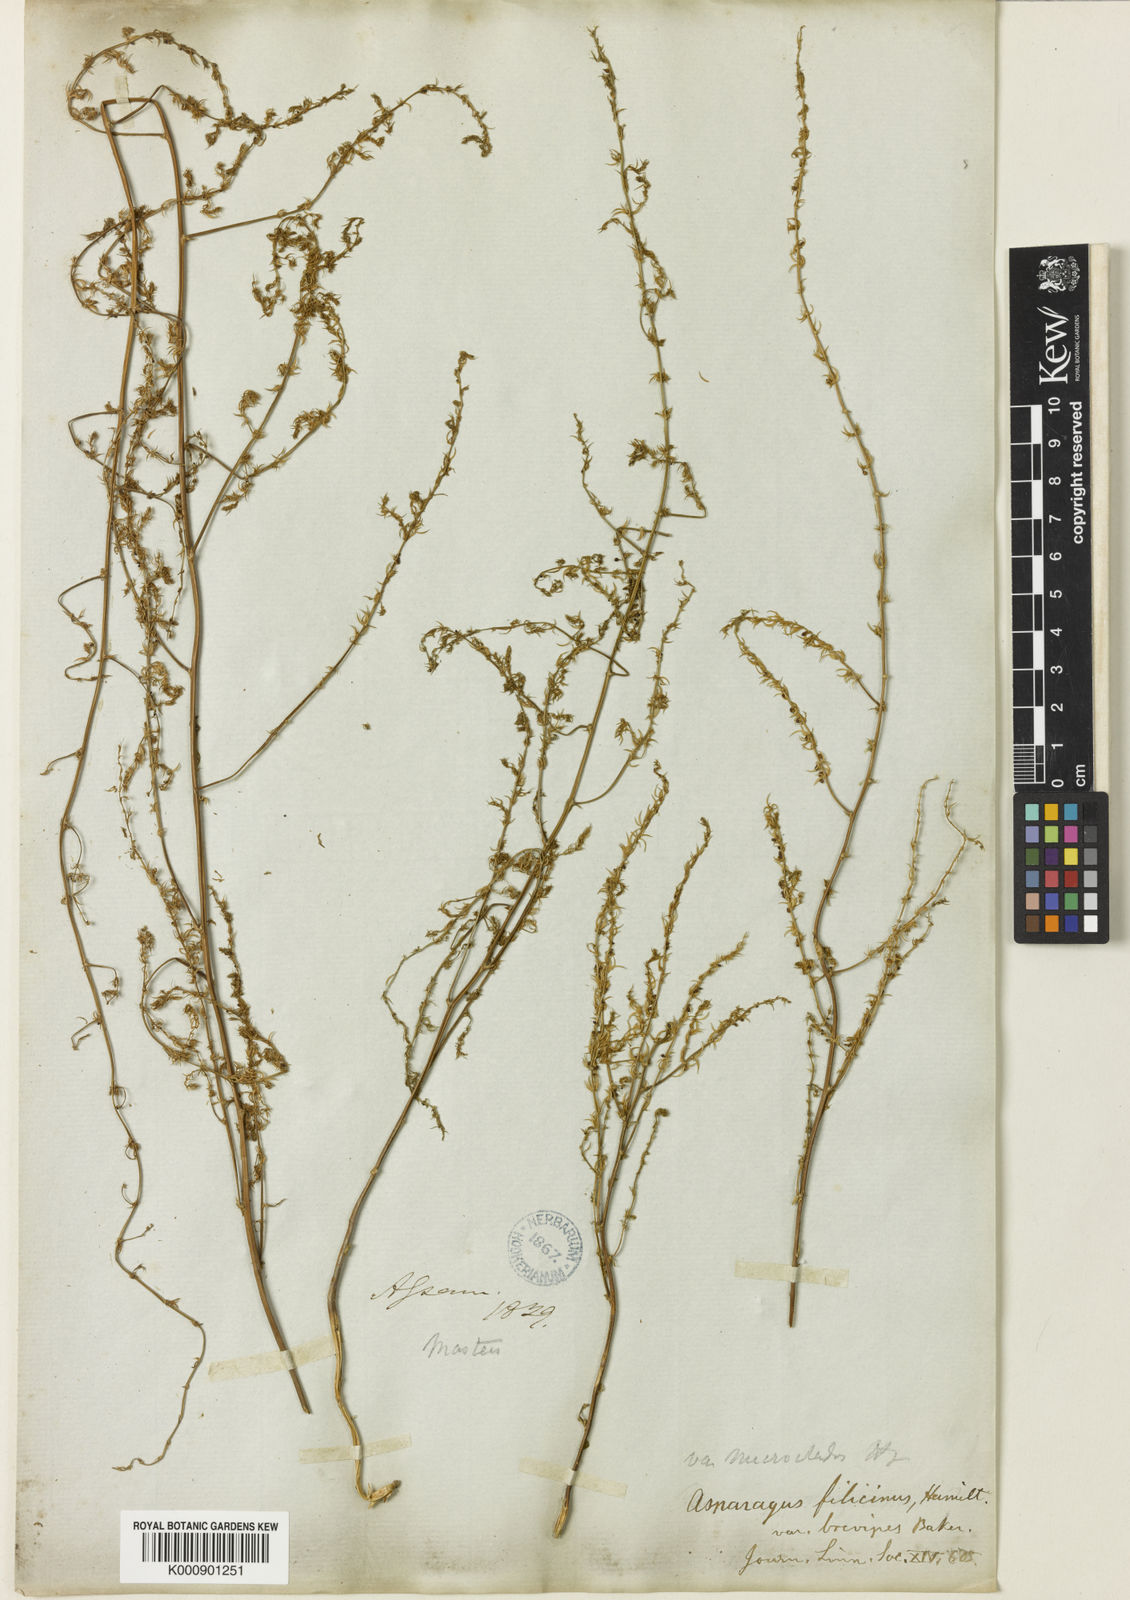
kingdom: Plantae
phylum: Tracheophyta
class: Liliopsida
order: Asparagales
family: Asparagaceae
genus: Asparagus
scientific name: Asparagus filicinus
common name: Fern asparagus
